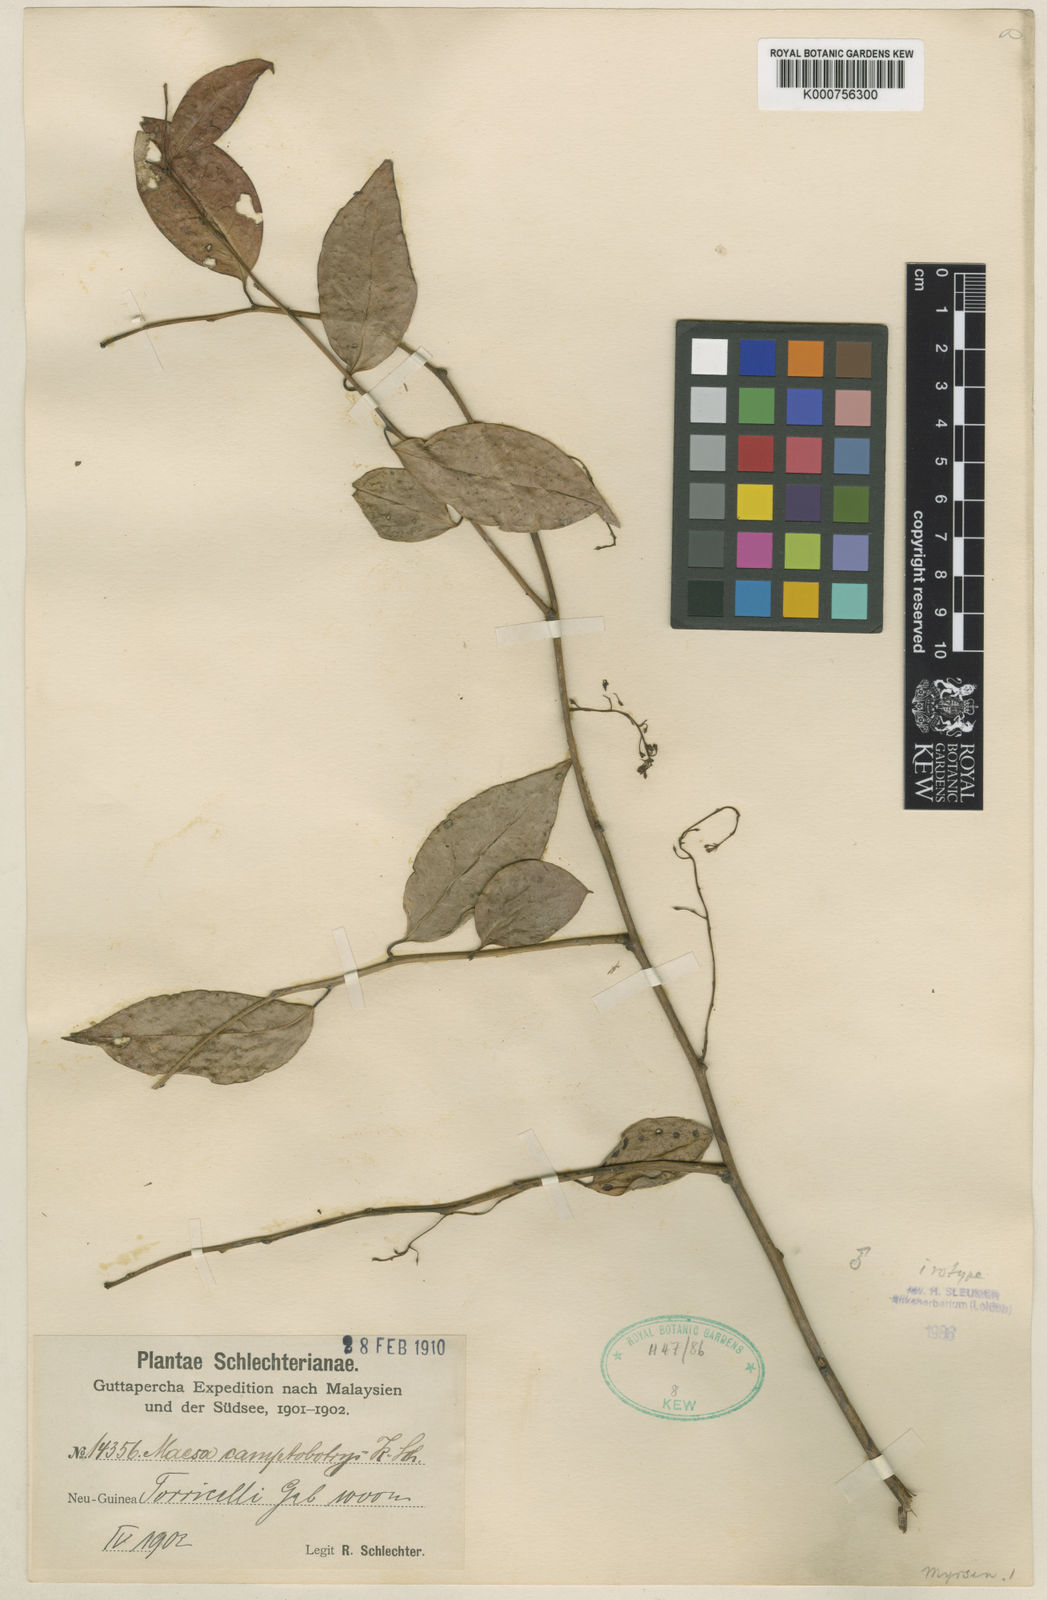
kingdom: Plantae
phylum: Tracheophyta
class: Magnoliopsida
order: Ericales
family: Primulaceae
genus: Discocalyx
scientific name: Discocalyx camptobotrys
